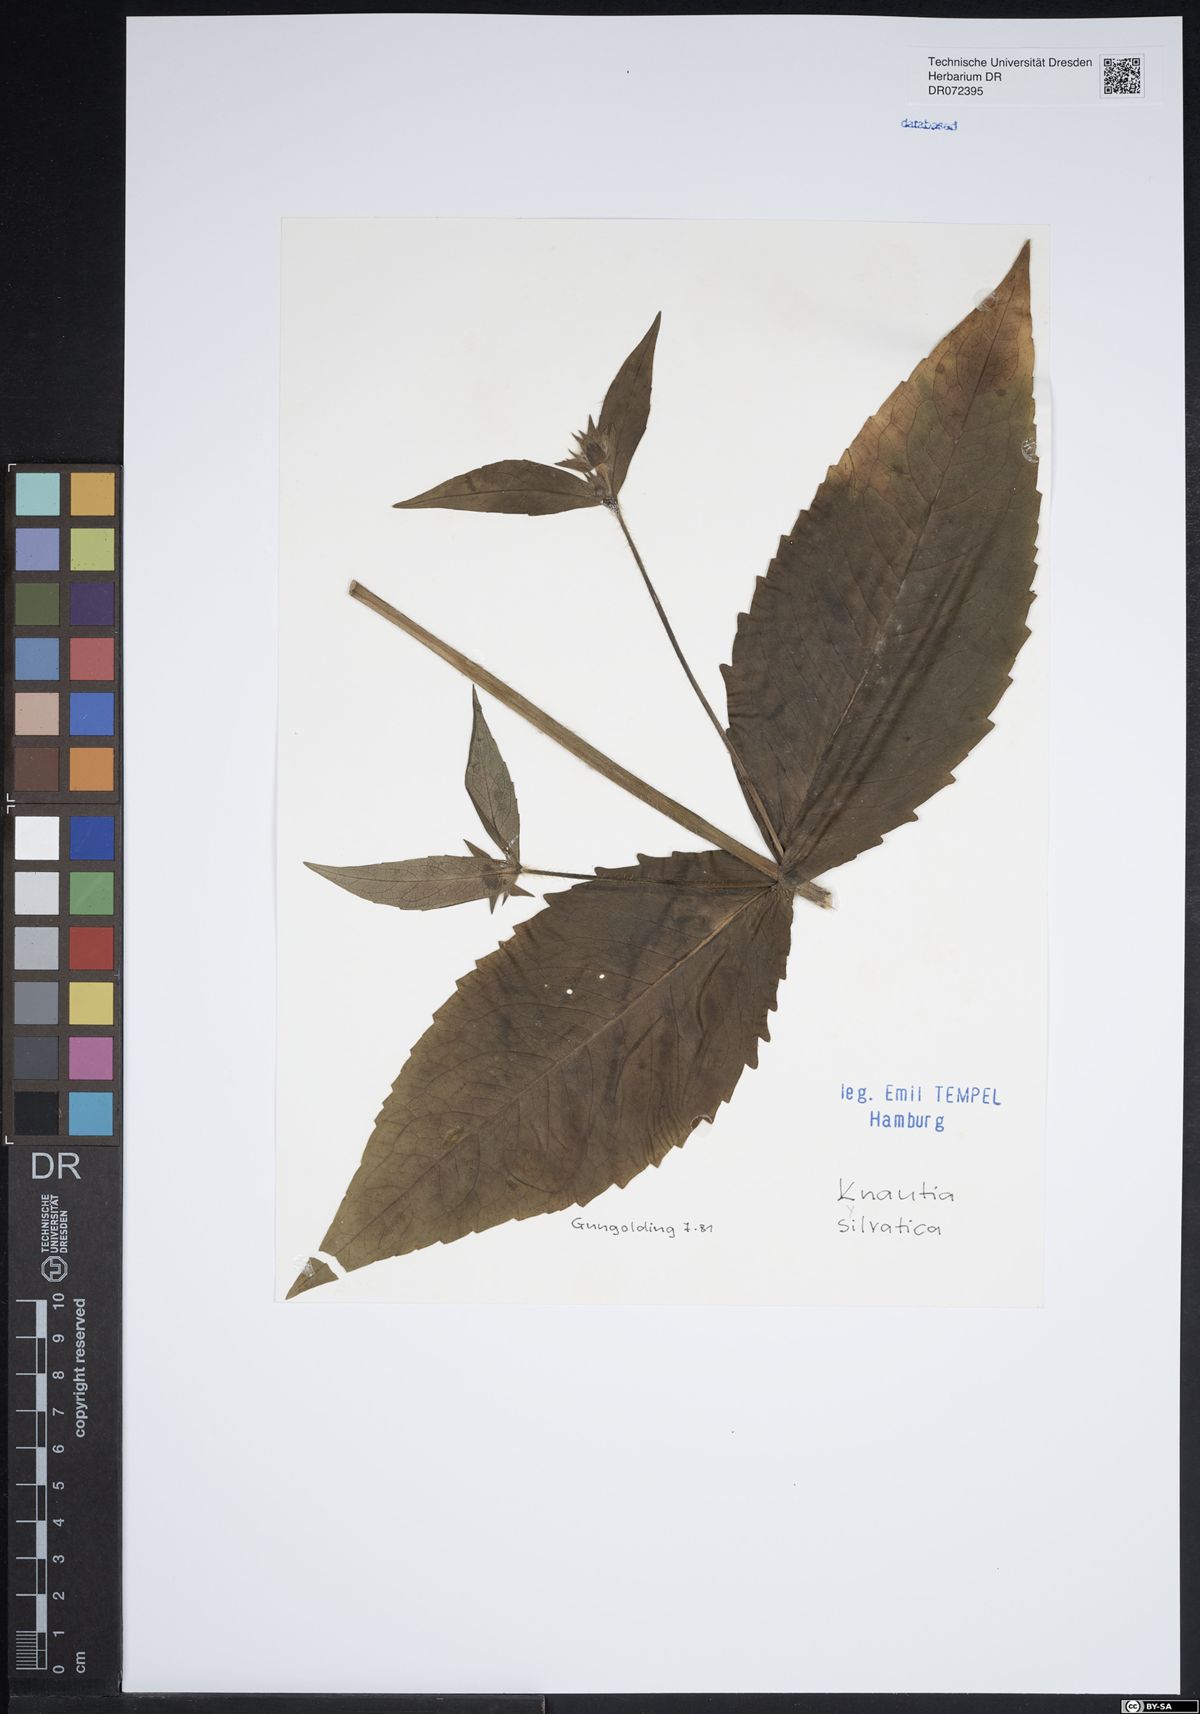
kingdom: Plantae
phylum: Tracheophyta
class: Magnoliopsida
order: Dipsacales
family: Caprifoliaceae
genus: Knautia
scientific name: Knautia drymeia
